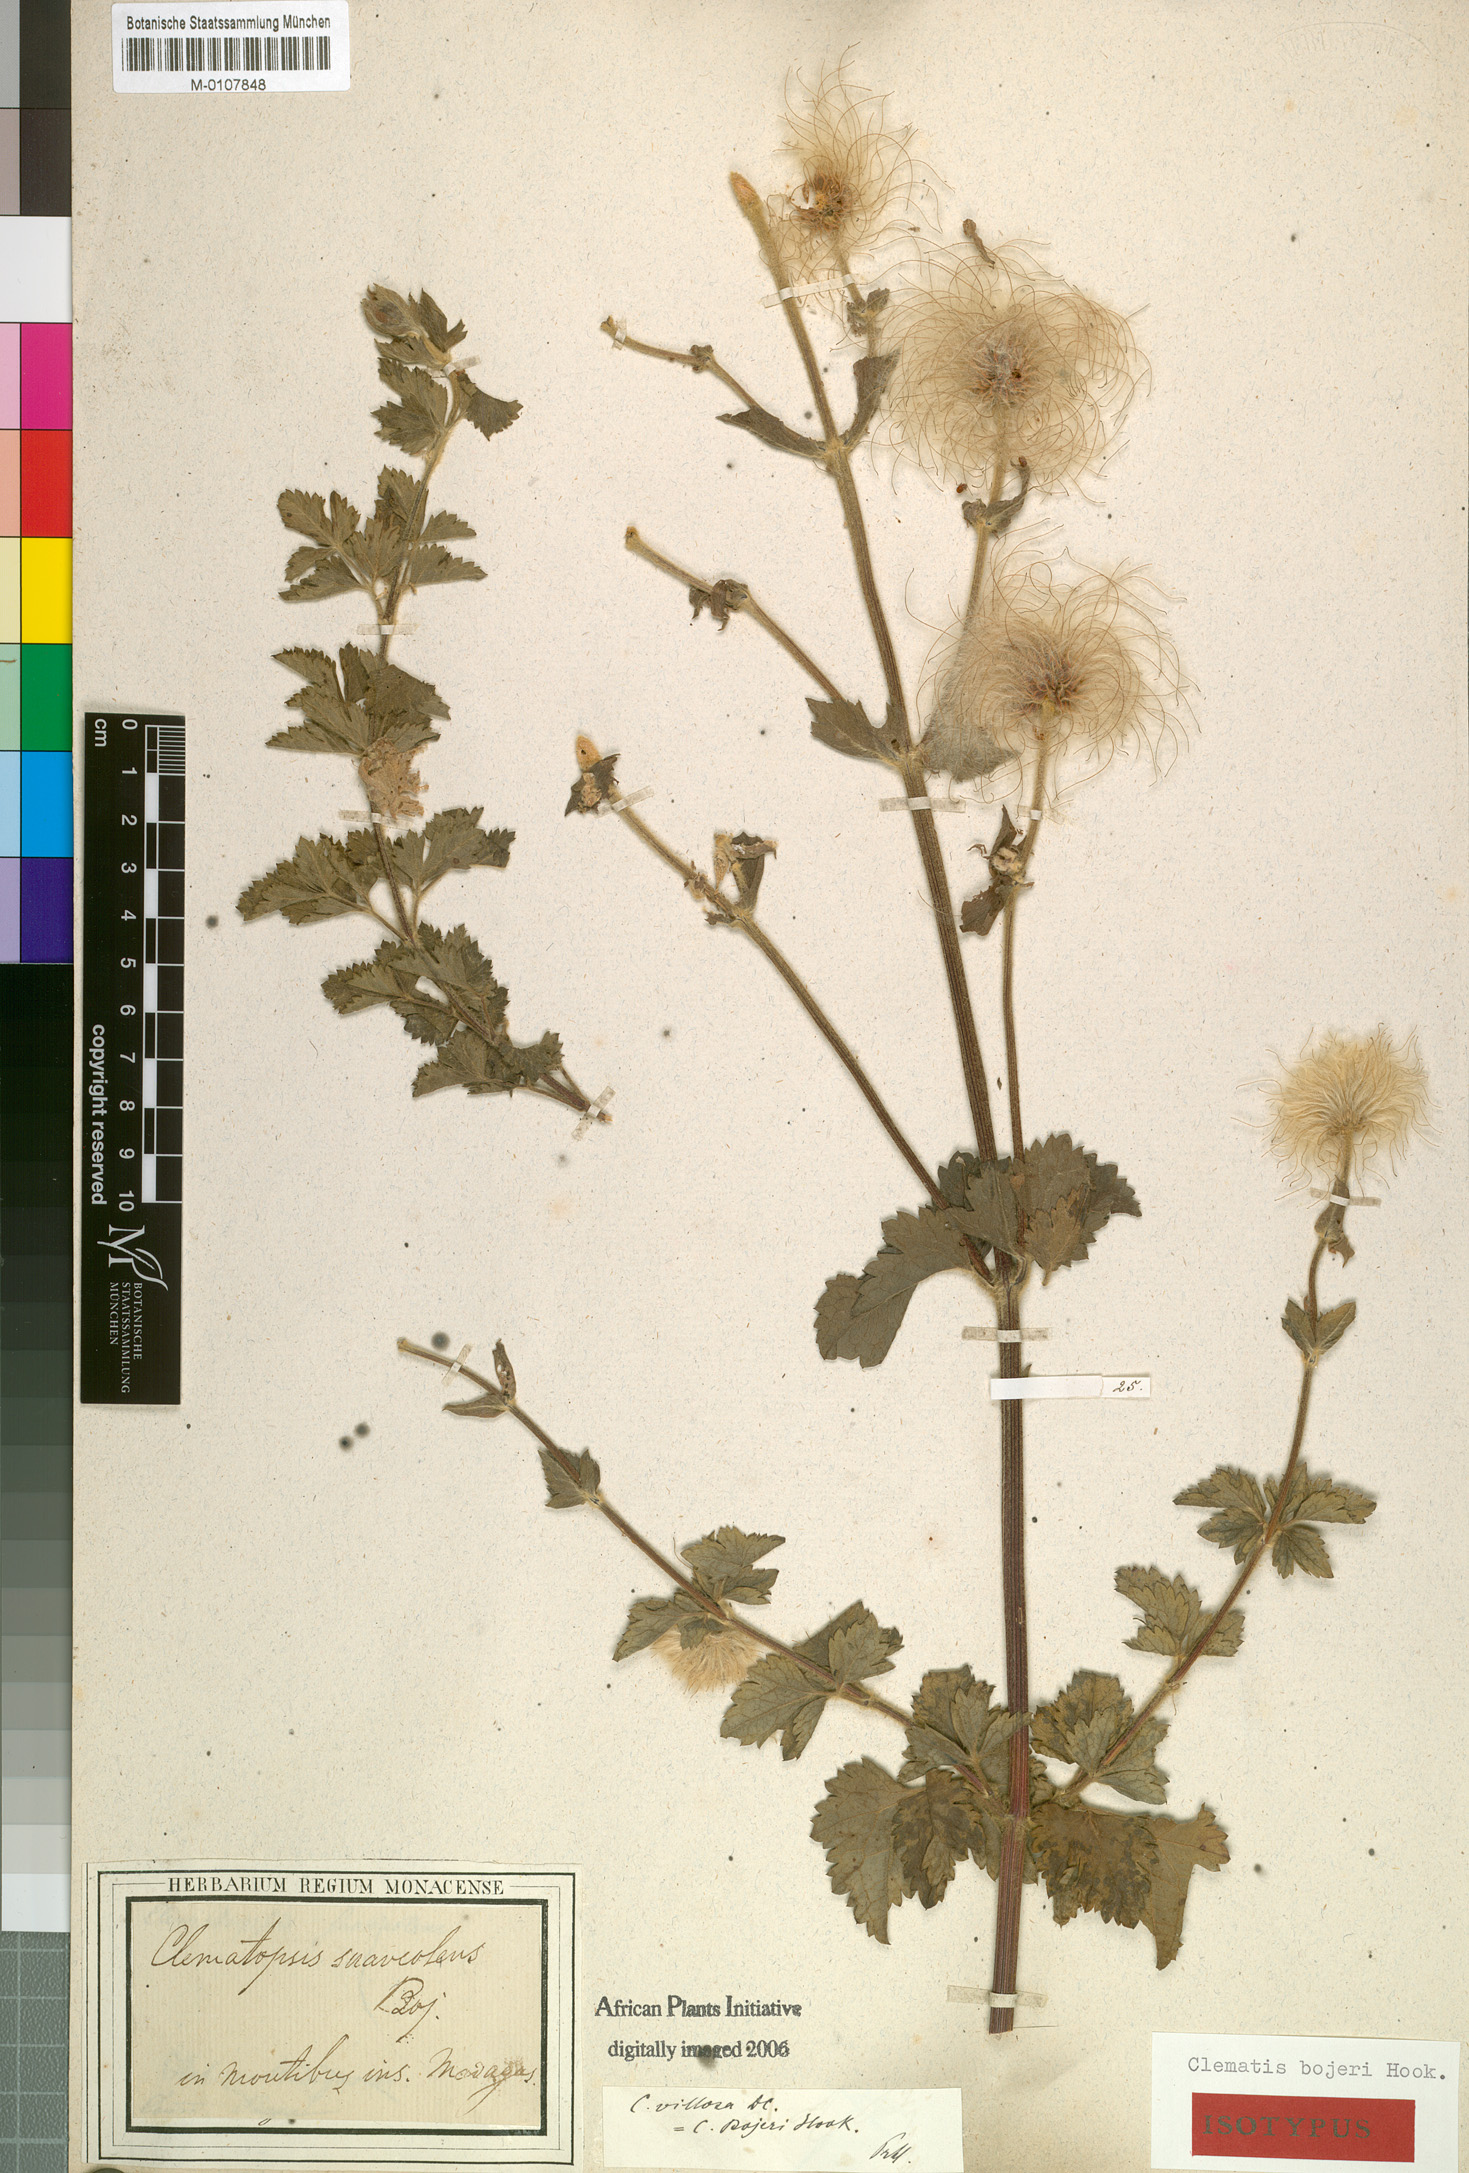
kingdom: Plantae
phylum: Tracheophyta
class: Magnoliopsida
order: Ranunculales
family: Ranunculaceae
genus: Clematis
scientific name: Clematis bojeri
